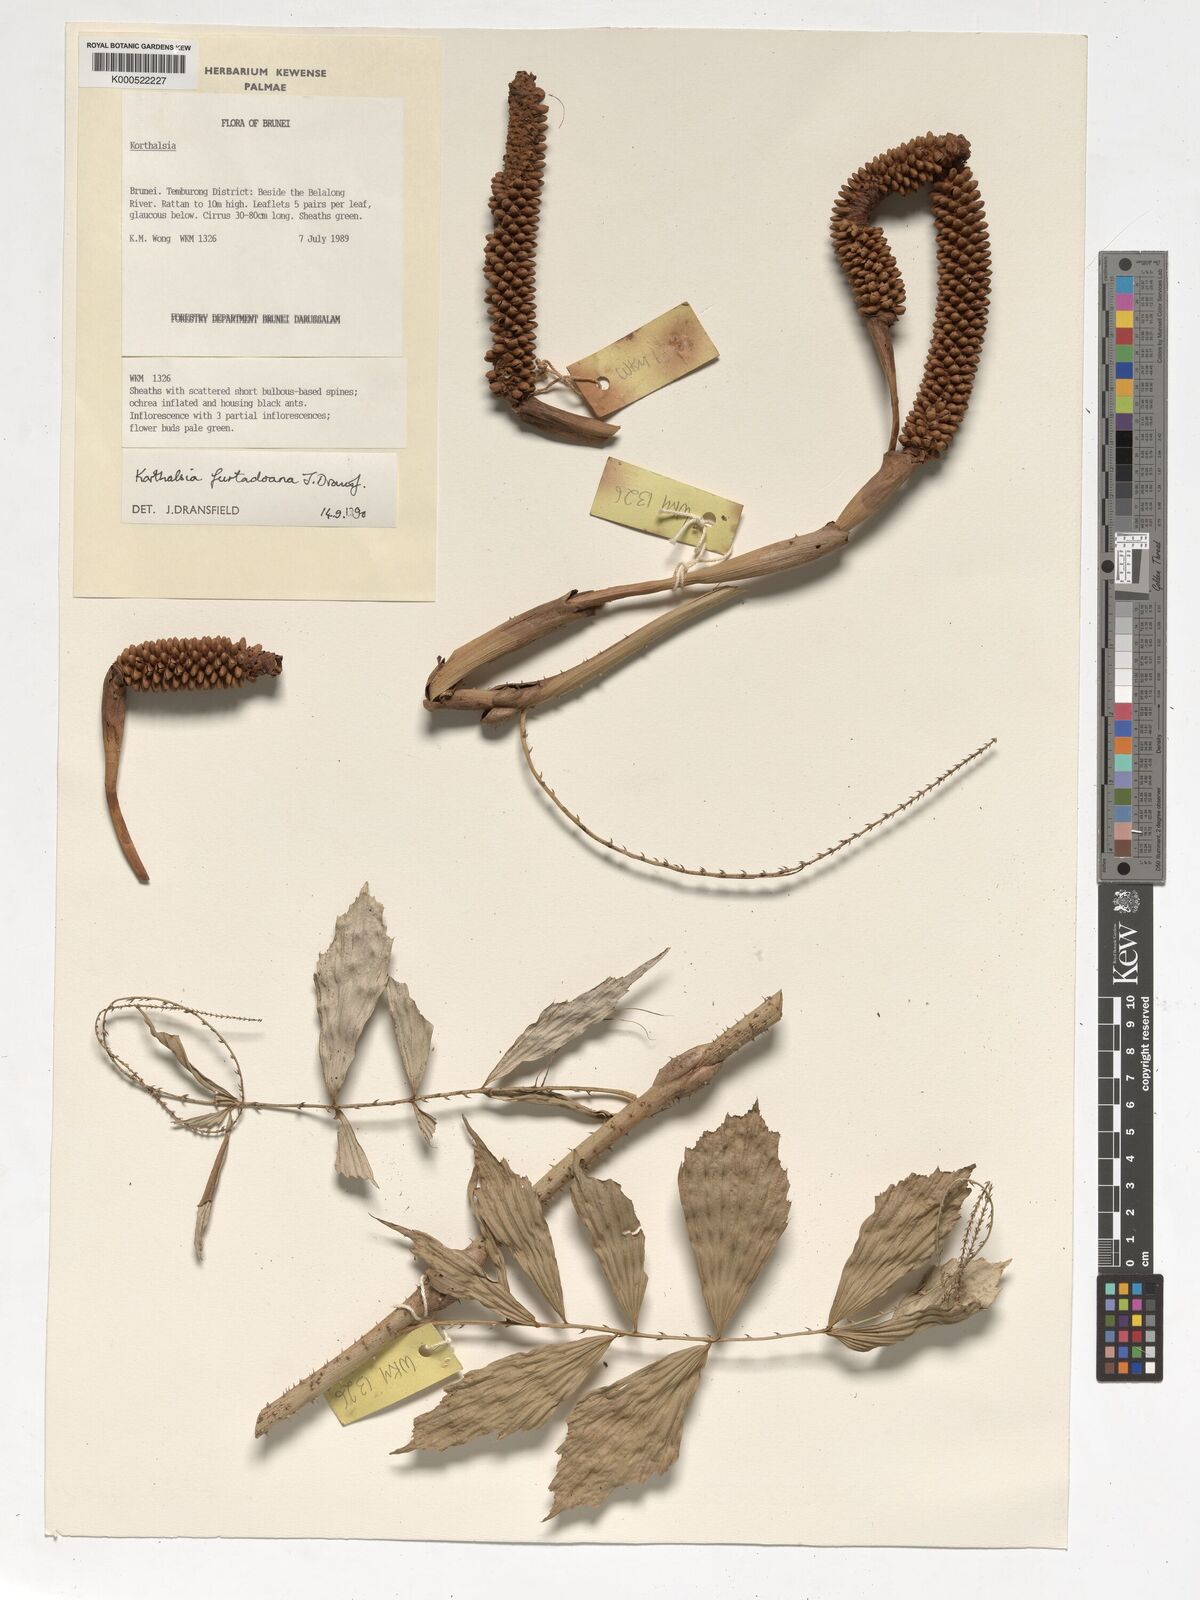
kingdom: Plantae
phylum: Tracheophyta
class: Liliopsida
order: Arecales
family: Arecaceae
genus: Korthalsia
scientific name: Korthalsia furtadoana
